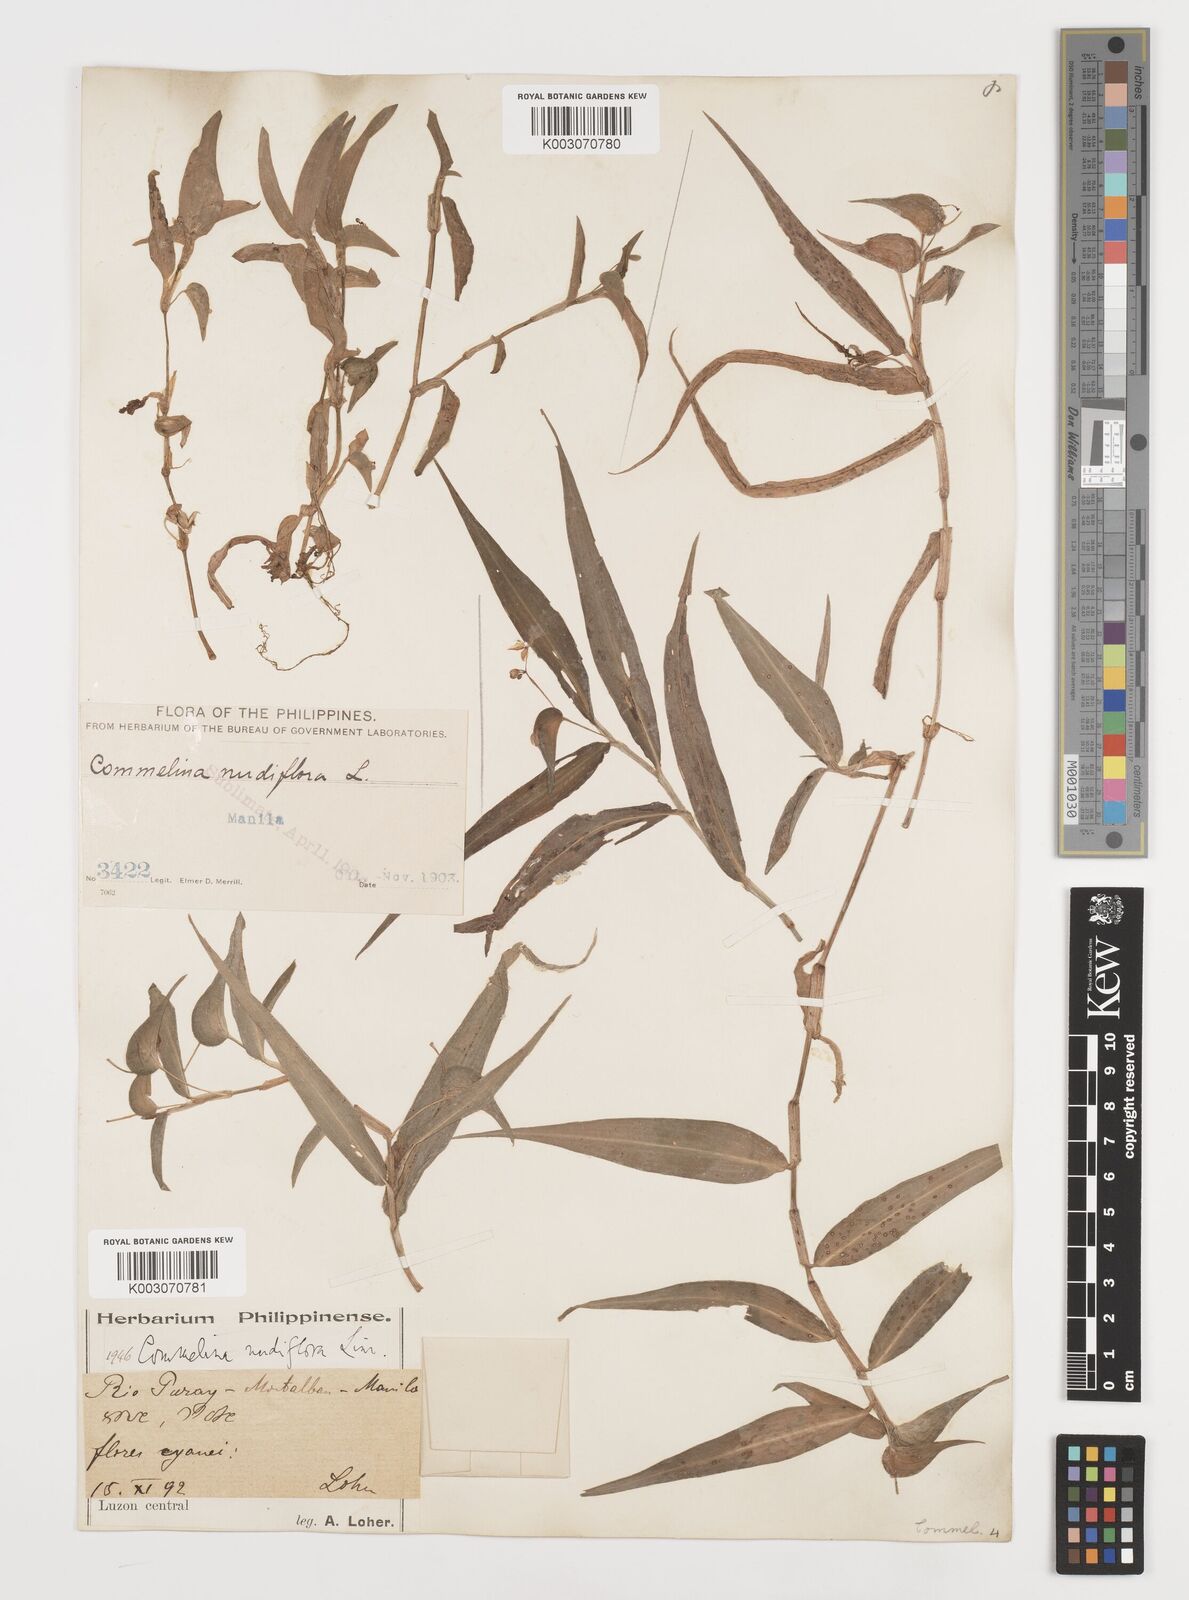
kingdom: Plantae
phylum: Tracheophyta
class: Liliopsida
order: Commelinales
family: Commelinaceae
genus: Murdannia
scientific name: Murdannia nudiflora
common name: Nakedstem dewflower
